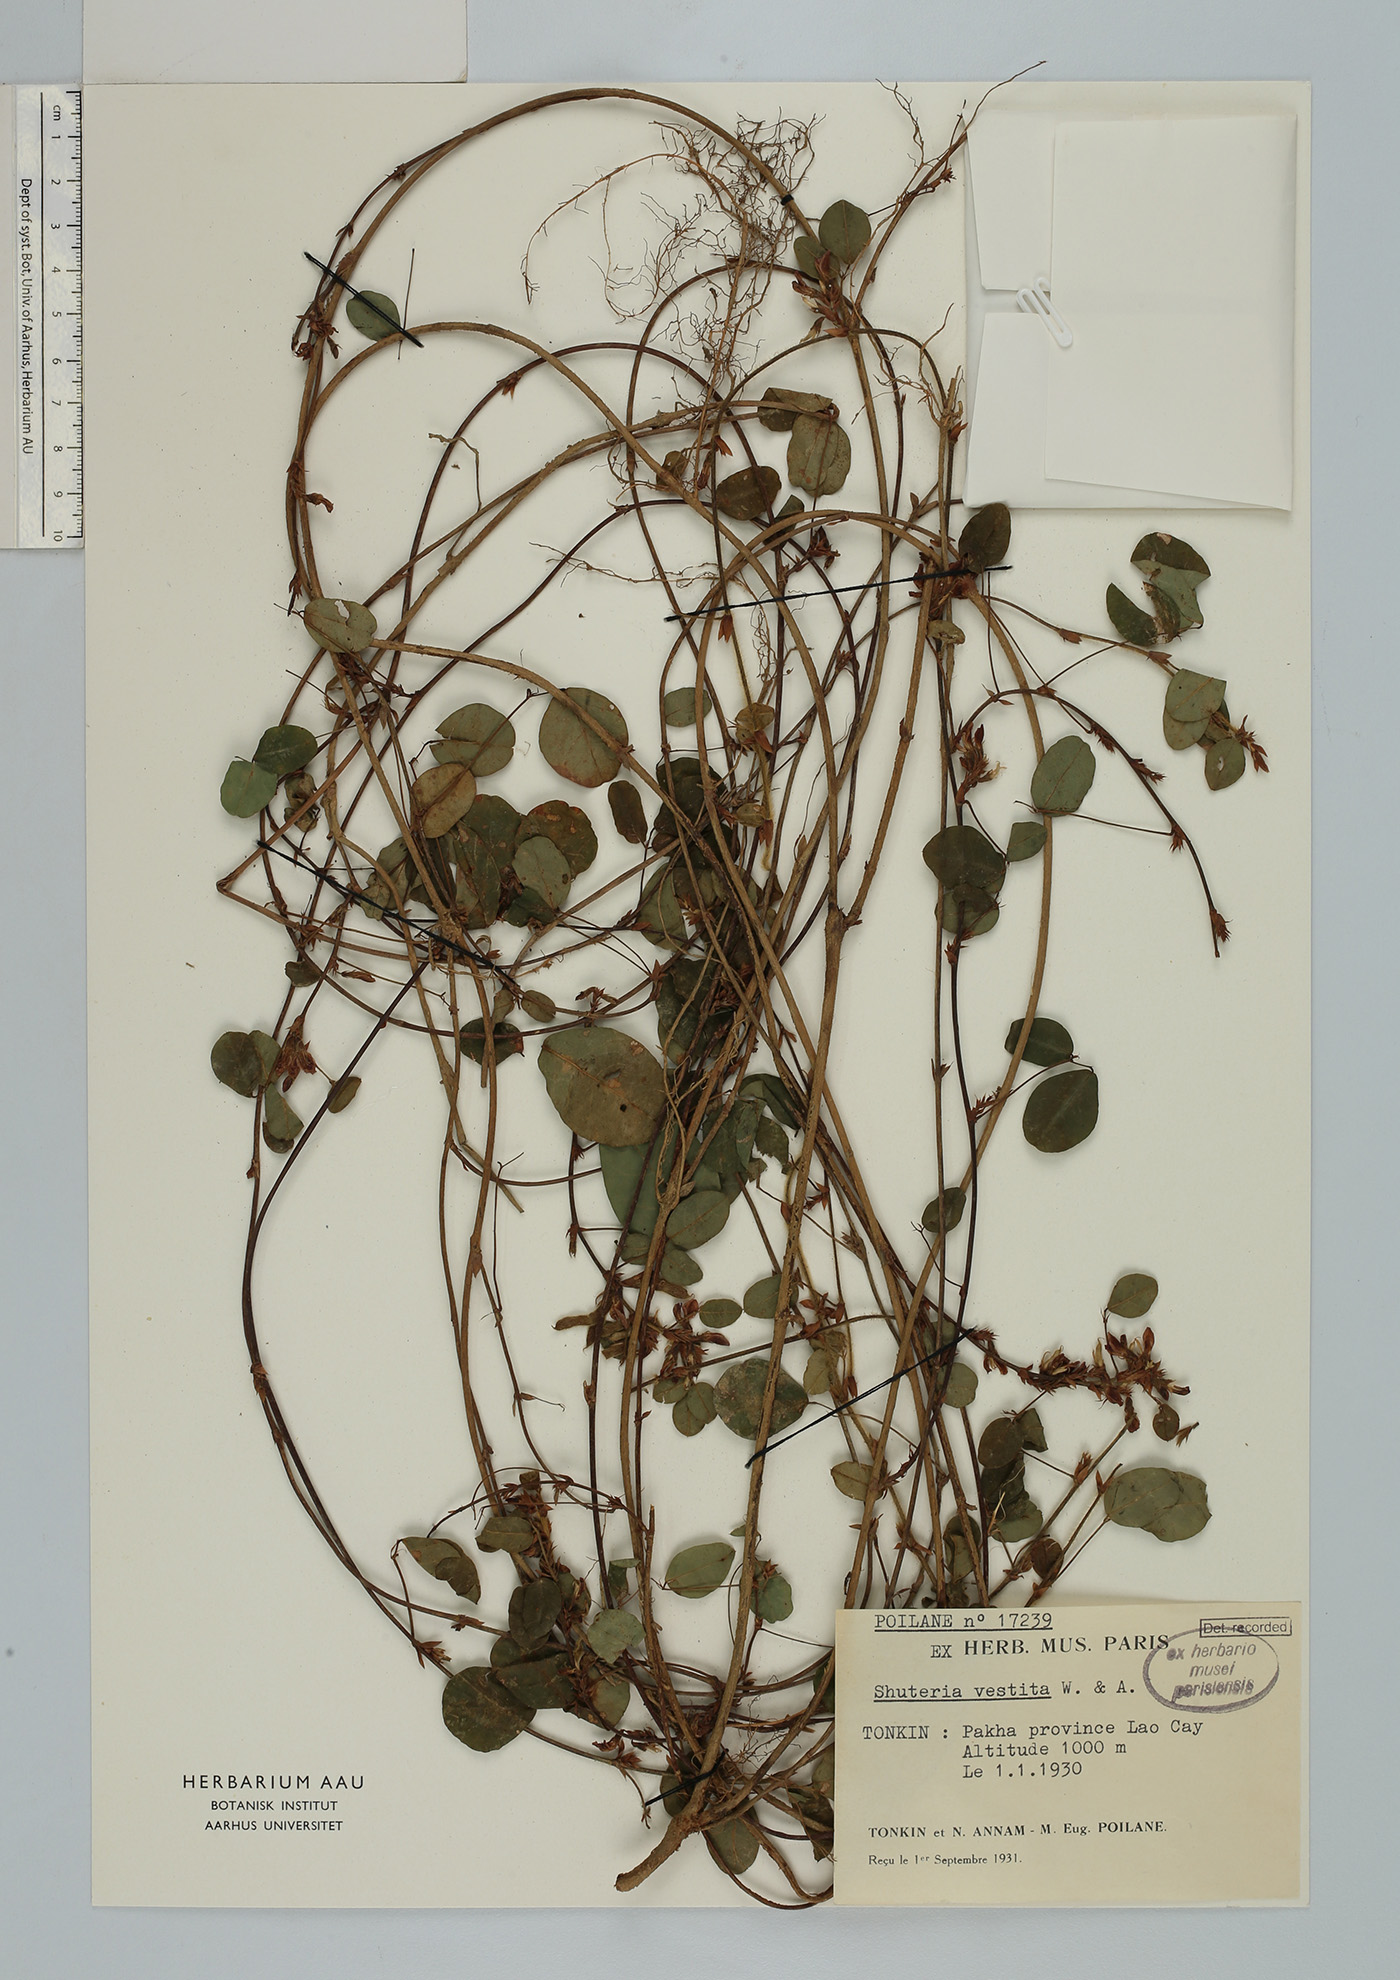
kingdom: Plantae
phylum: Tracheophyta
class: Magnoliopsida
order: Fabales
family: Fabaceae
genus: Shuteria
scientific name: Shuteria vestita
